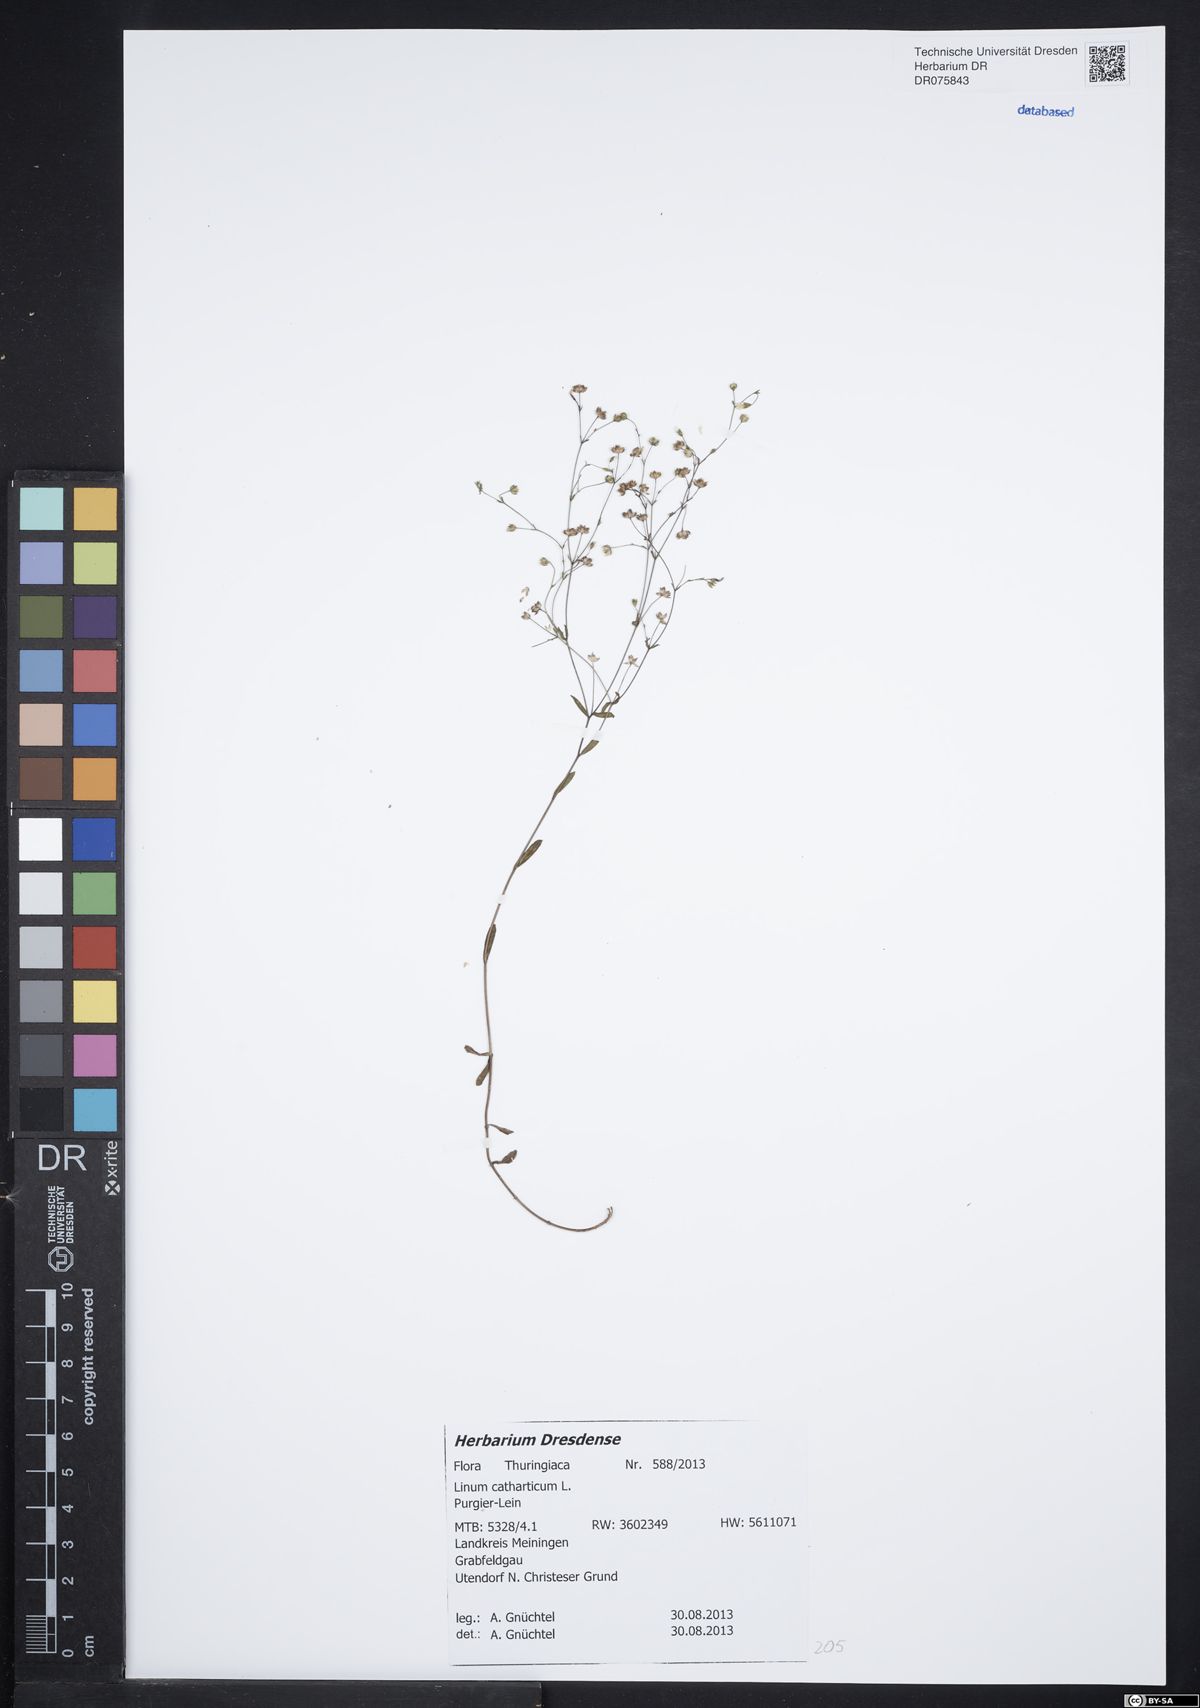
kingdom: Plantae
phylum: Tracheophyta
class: Magnoliopsida
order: Malpighiales
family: Linaceae
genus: Linum
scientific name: Linum catharticum
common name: Fairy flax
